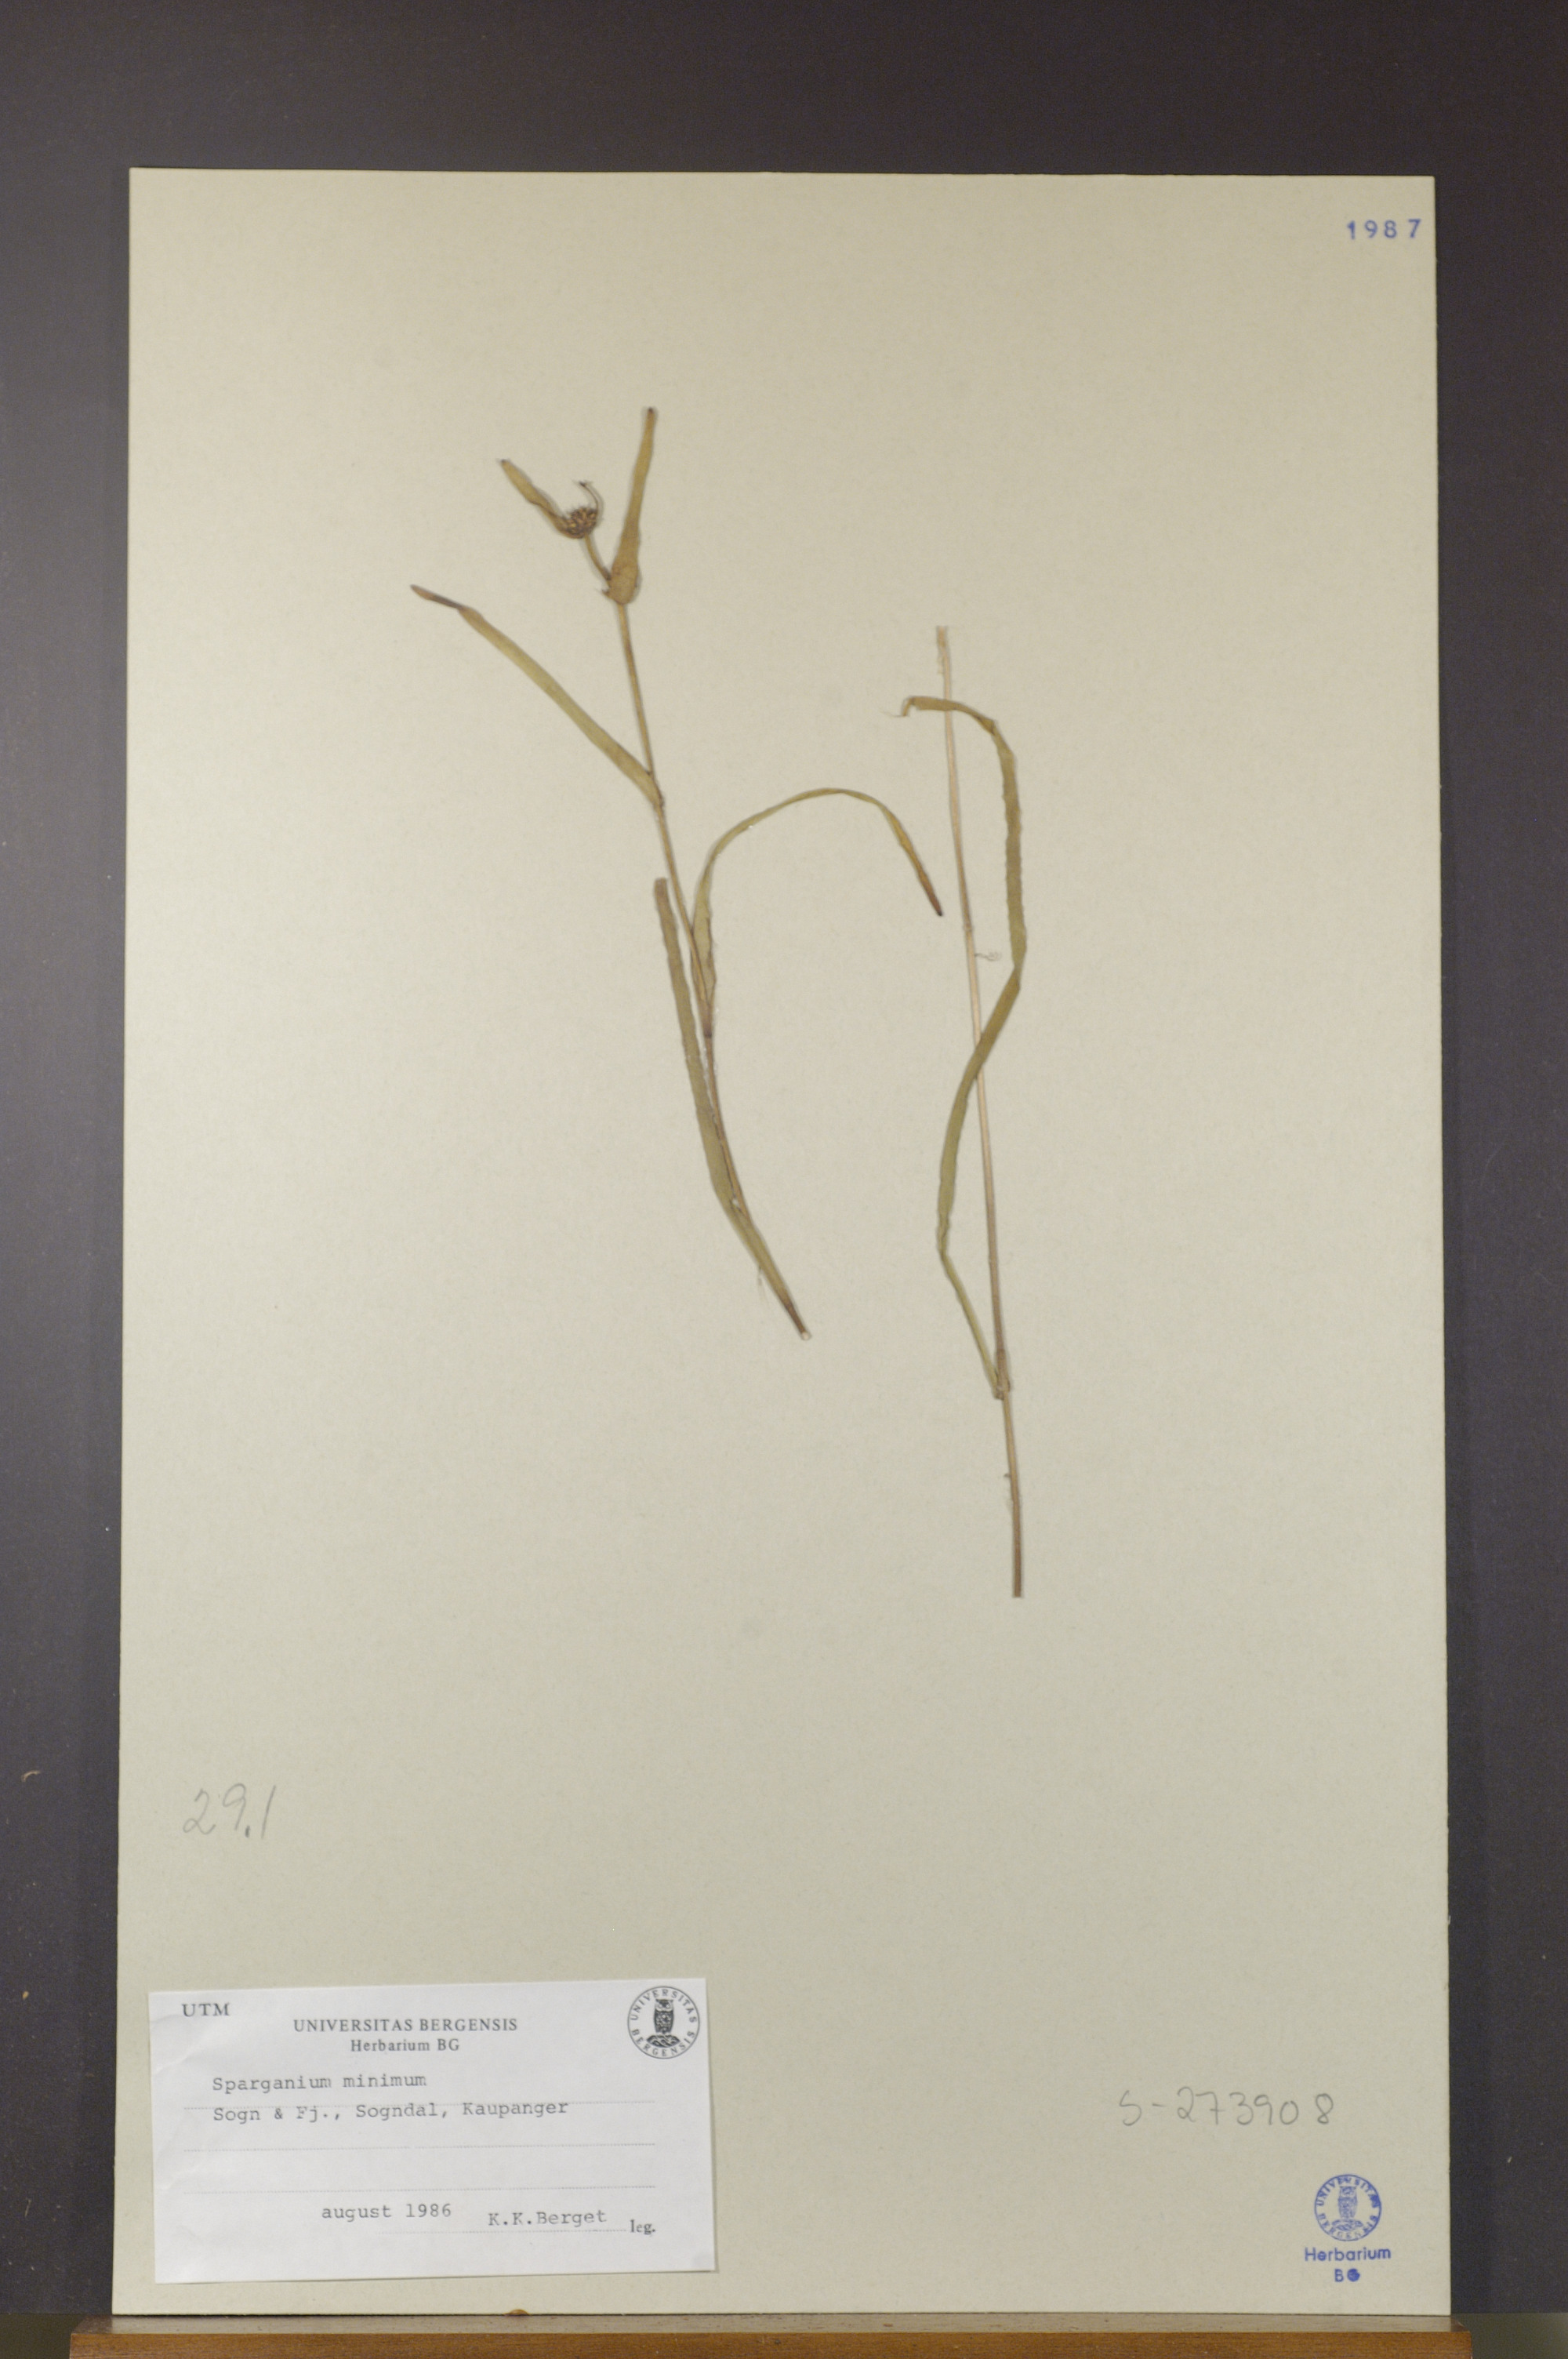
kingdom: Plantae
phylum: Tracheophyta
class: Liliopsida
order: Poales
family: Typhaceae
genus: Sparganium
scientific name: Sparganium natans
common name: Least bur-reed
